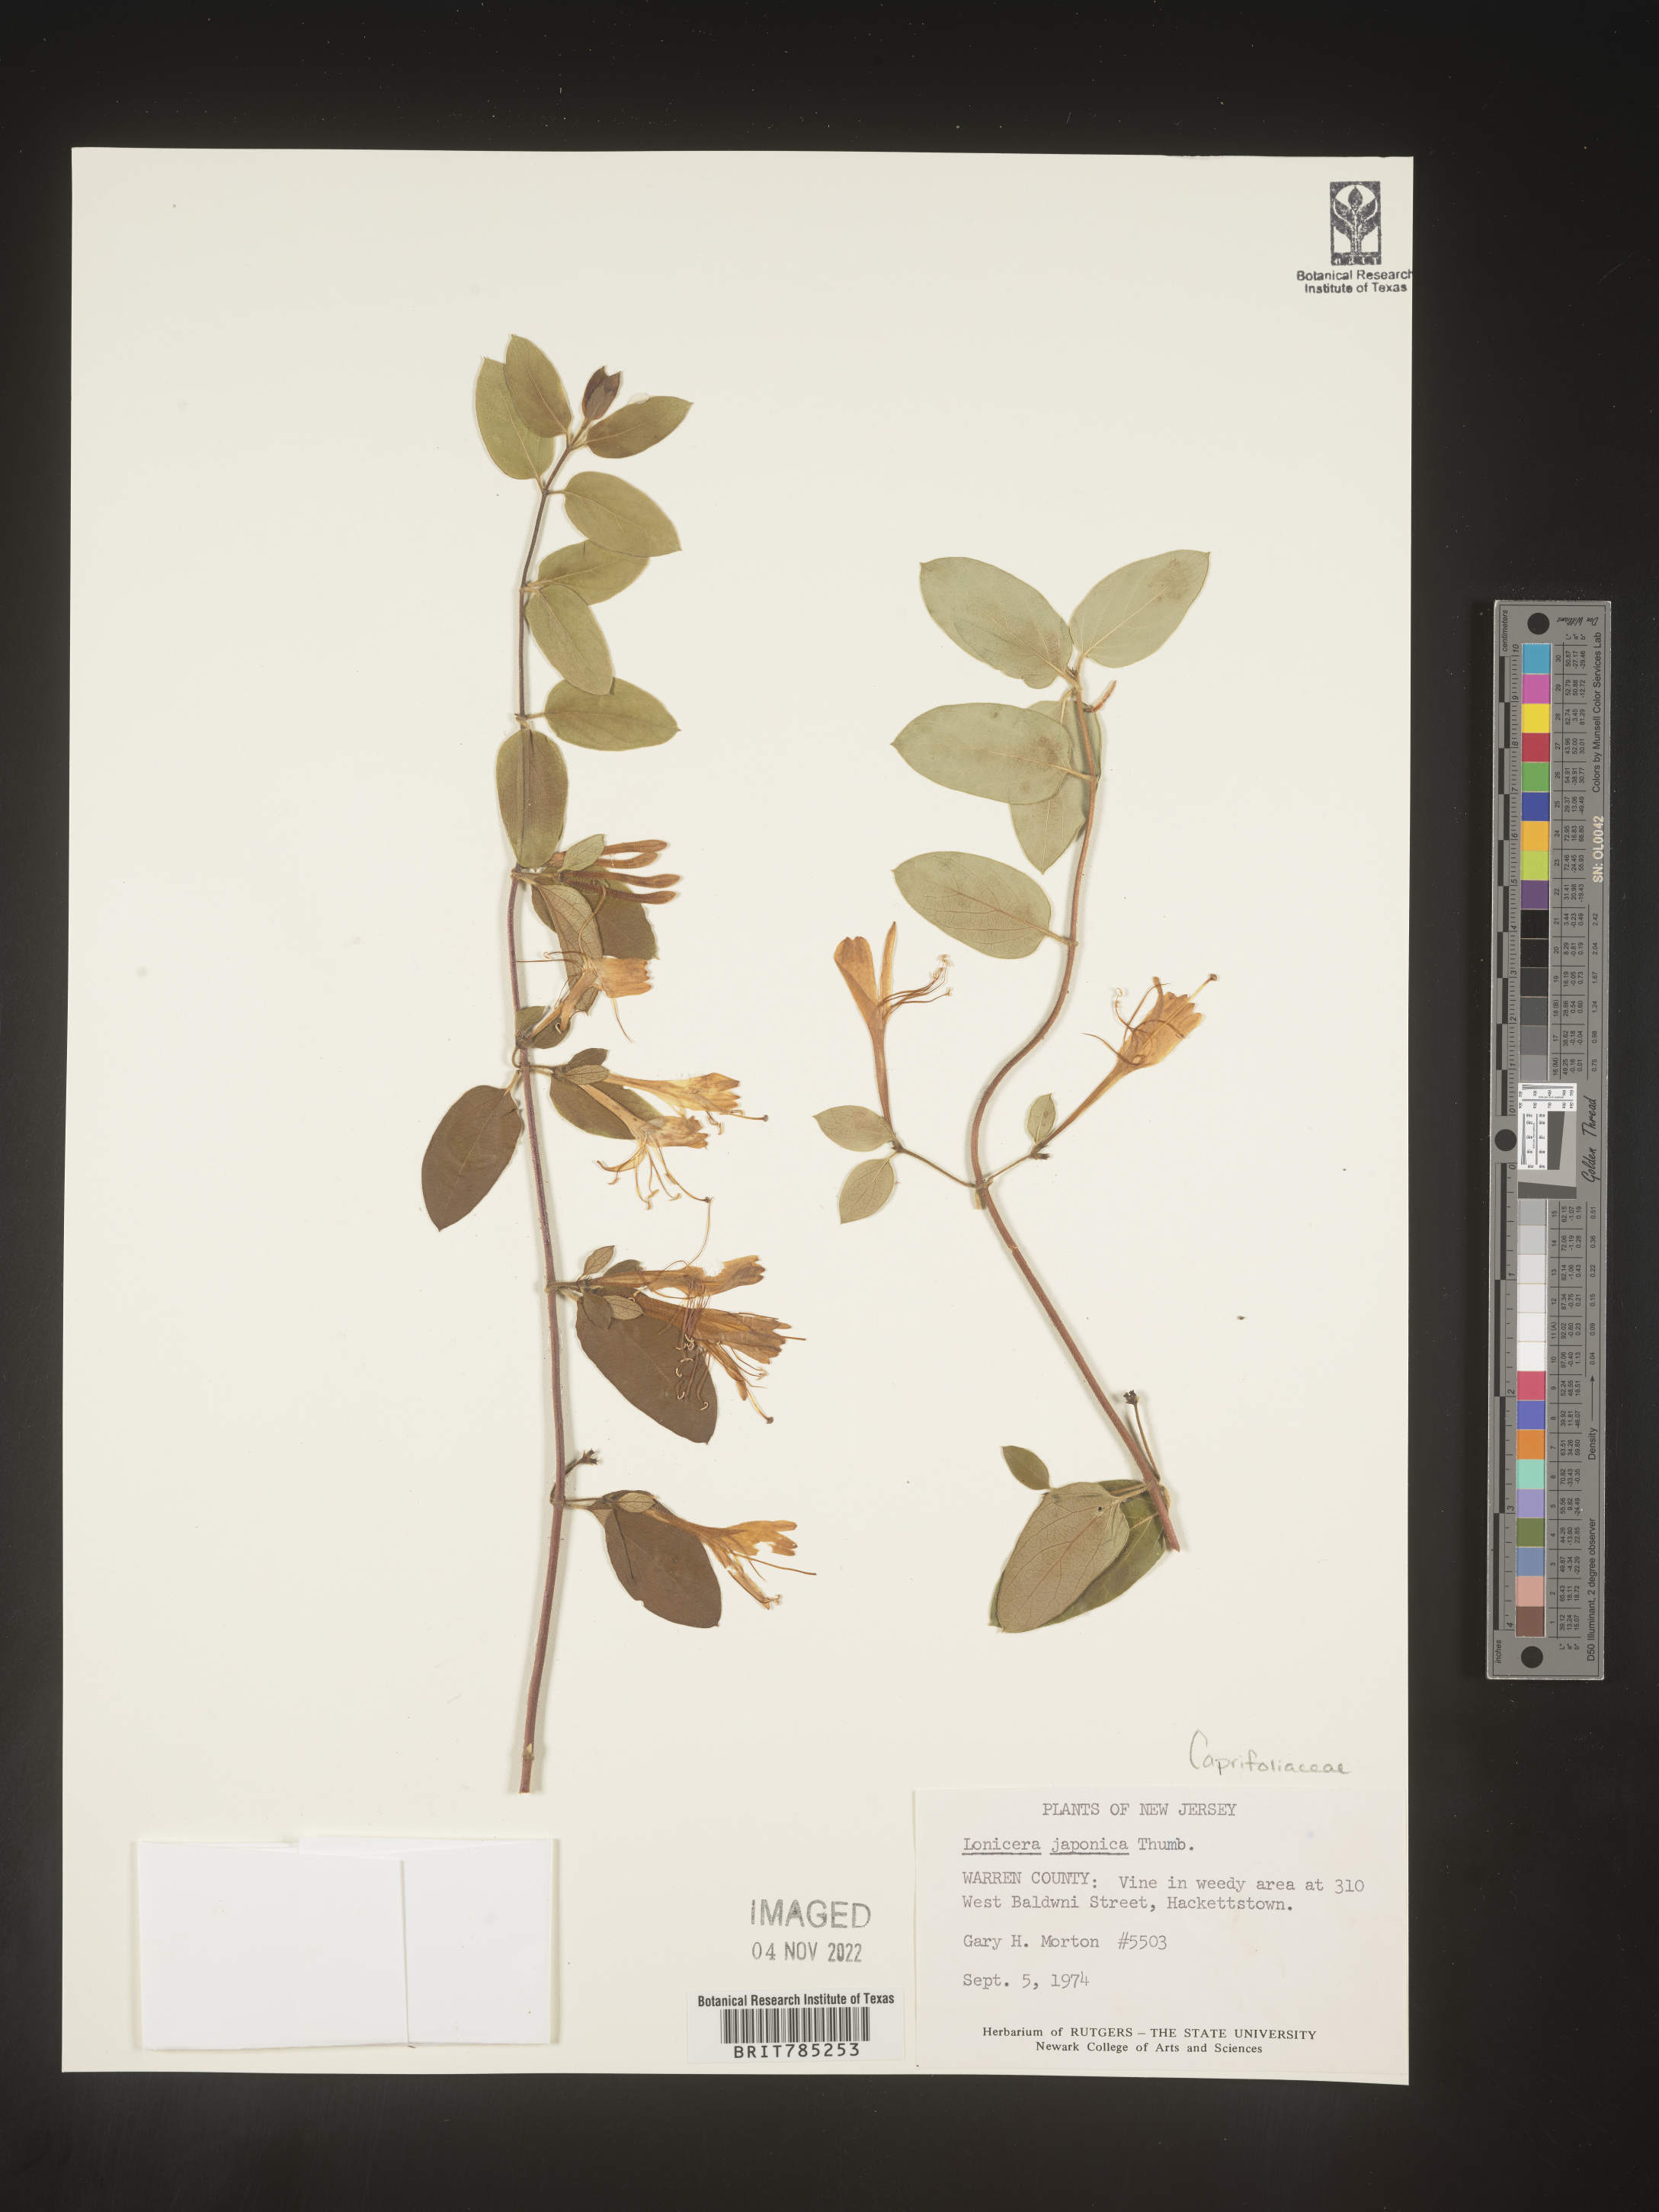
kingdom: Plantae
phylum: Tracheophyta
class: Magnoliopsida
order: Dipsacales
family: Caprifoliaceae
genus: Lonicera
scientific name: Lonicera japonica
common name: Japanese honeysuckle
